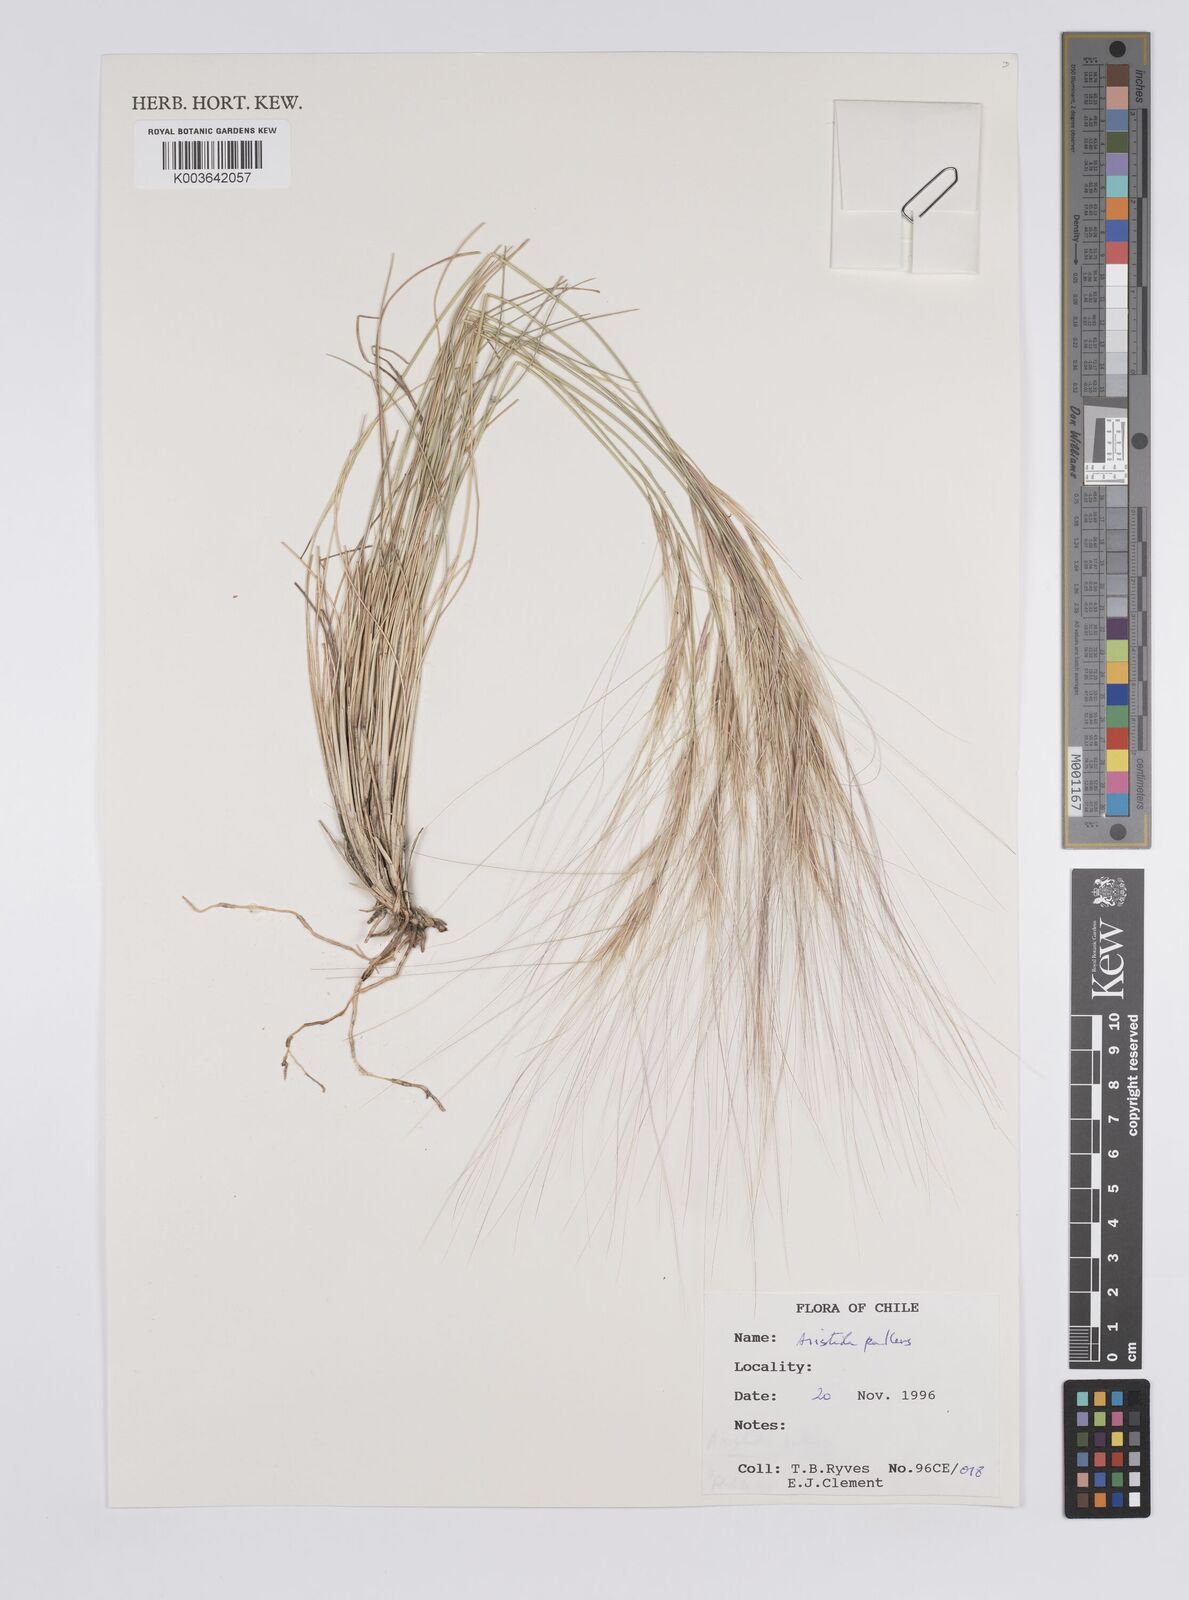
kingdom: Plantae
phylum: Tracheophyta
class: Liliopsida
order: Poales
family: Poaceae
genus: Aristida
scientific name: Aristida pallens
